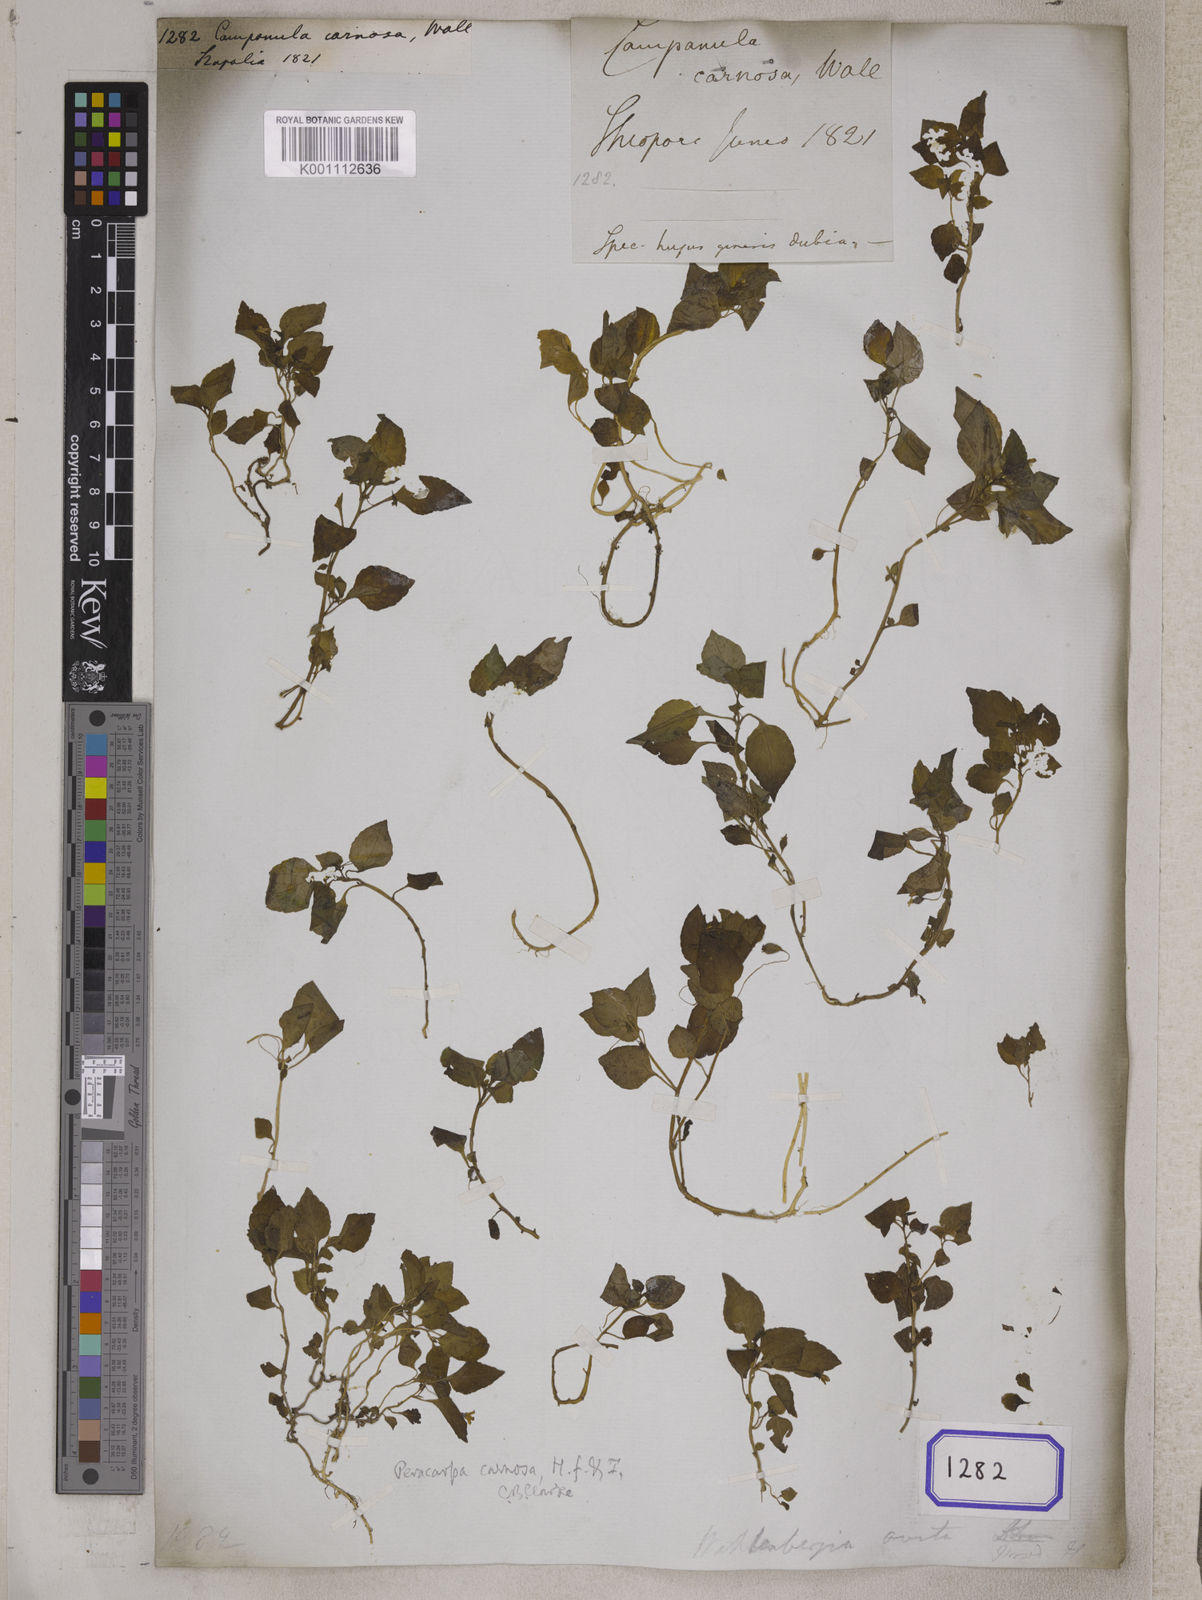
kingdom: Plantae
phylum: Tracheophyta
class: Magnoliopsida
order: Asterales
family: Campanulaceae
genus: Peracarpa
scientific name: Peracarpa carnosa
